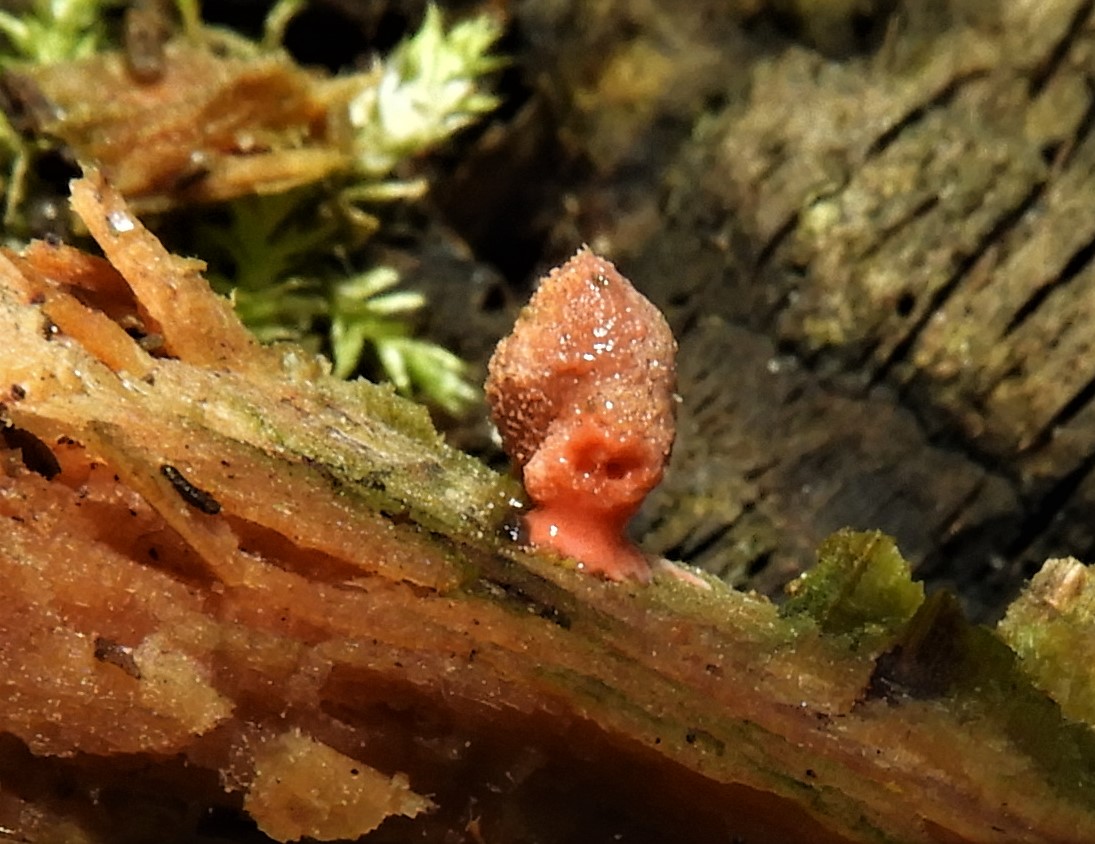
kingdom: Protozoa
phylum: Mycetozoa
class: Myxomycetes
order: Cribrariales
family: Tubiferaceae
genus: Lycogala
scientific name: Lycogala
